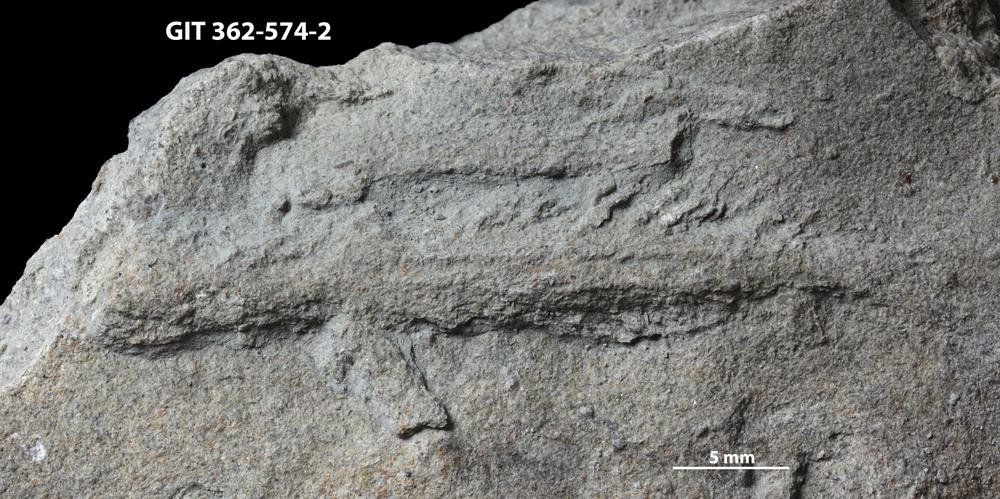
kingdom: Animalia
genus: Protovirgularia
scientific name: Protovirgularia
